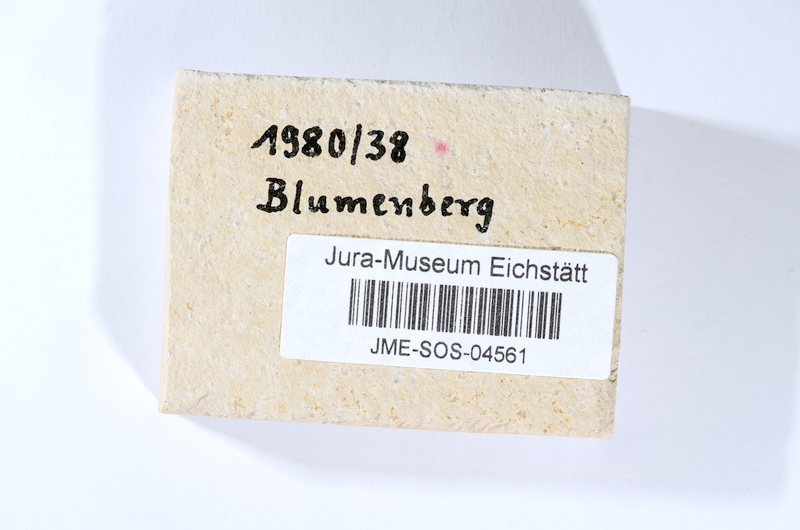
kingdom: Animalia
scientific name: Animalia
